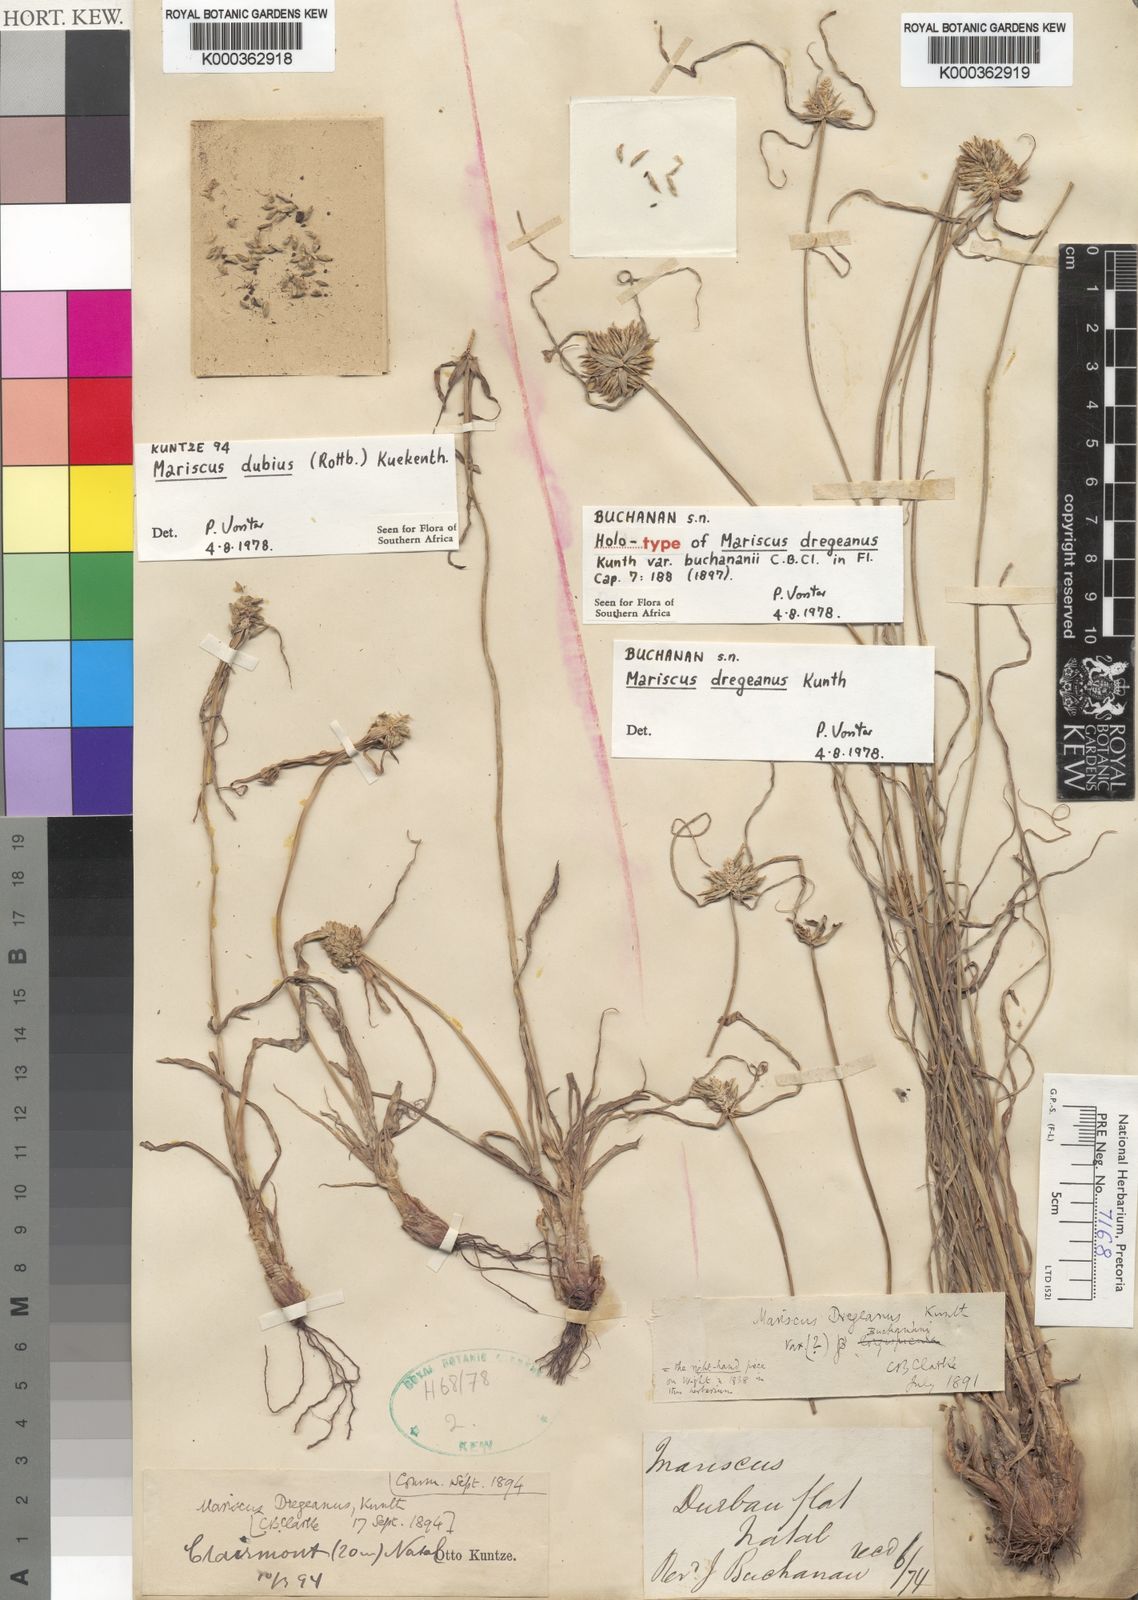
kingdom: Plantae
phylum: Tracheophyta
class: Liliopsida
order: Poales
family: Cyperaceae
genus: Cyperus
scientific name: Cyperus dubius
